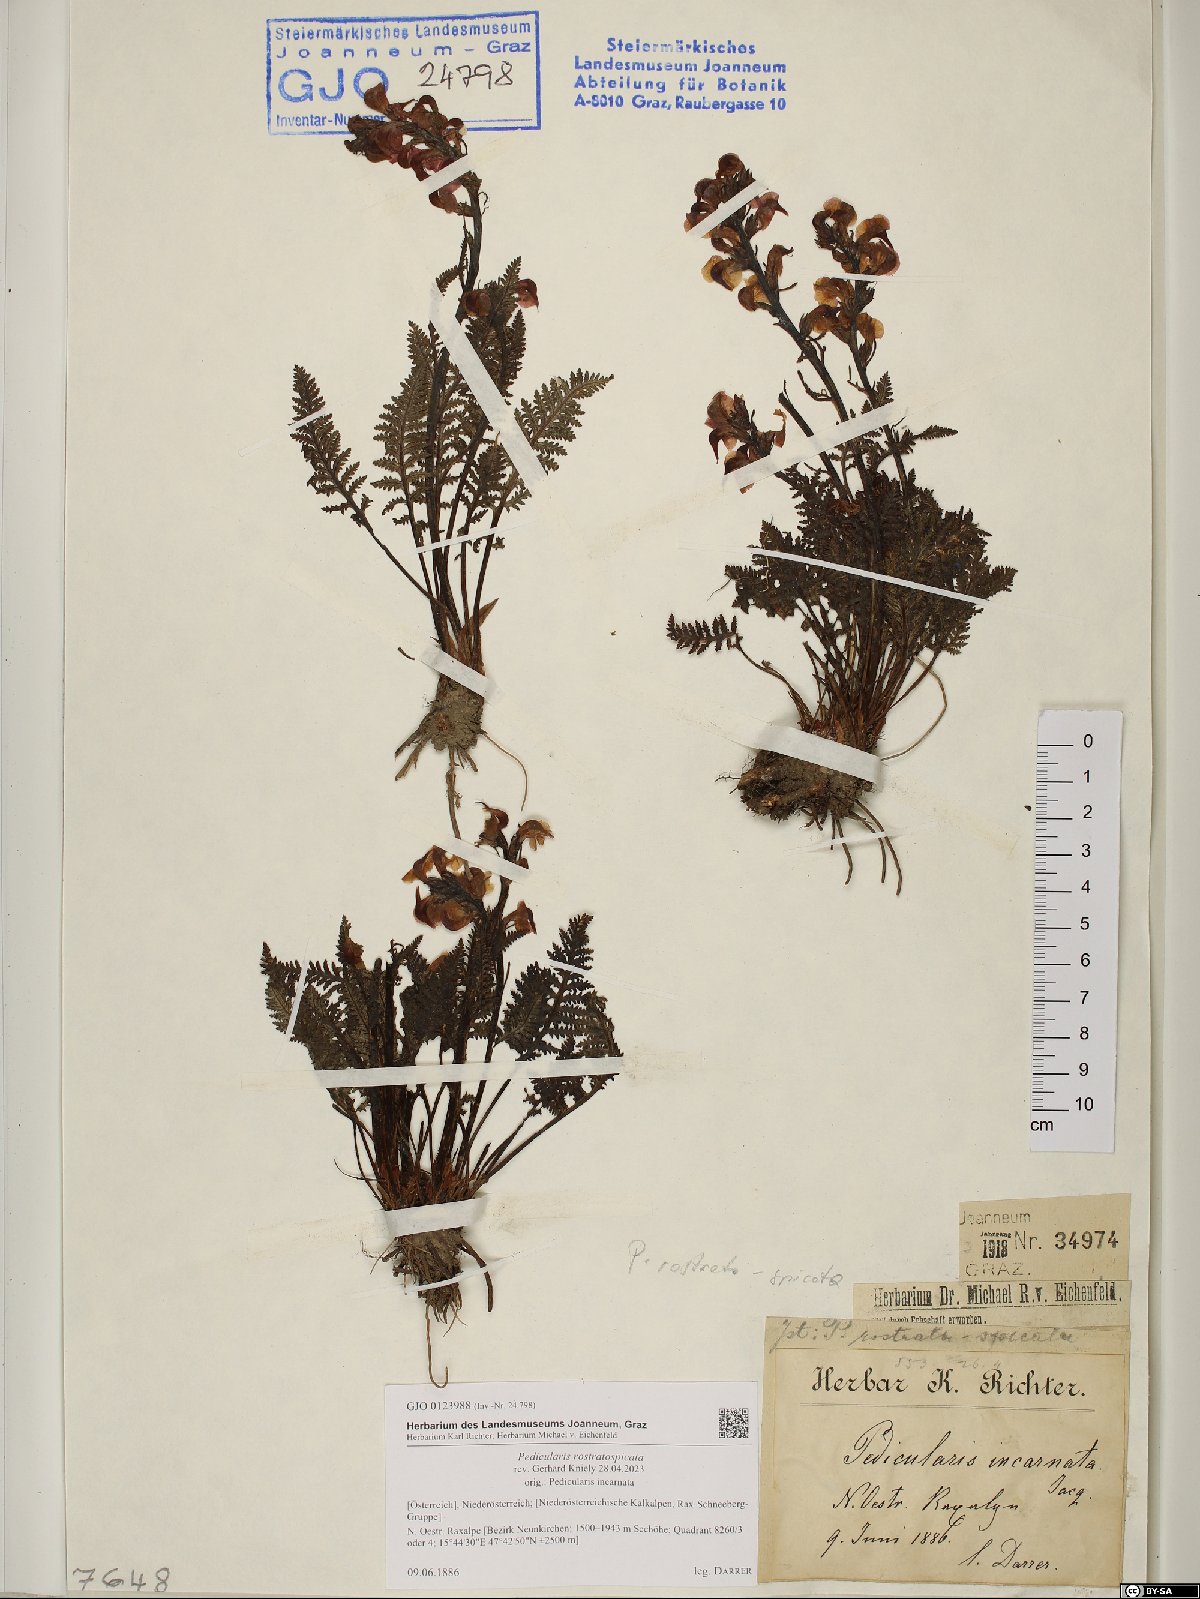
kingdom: Plantae
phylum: Tracheophyta
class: Magnoliopsida
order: Lamiales
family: Orobanchaceae
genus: Pedicularis
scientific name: Pedicularis rostratospicata
